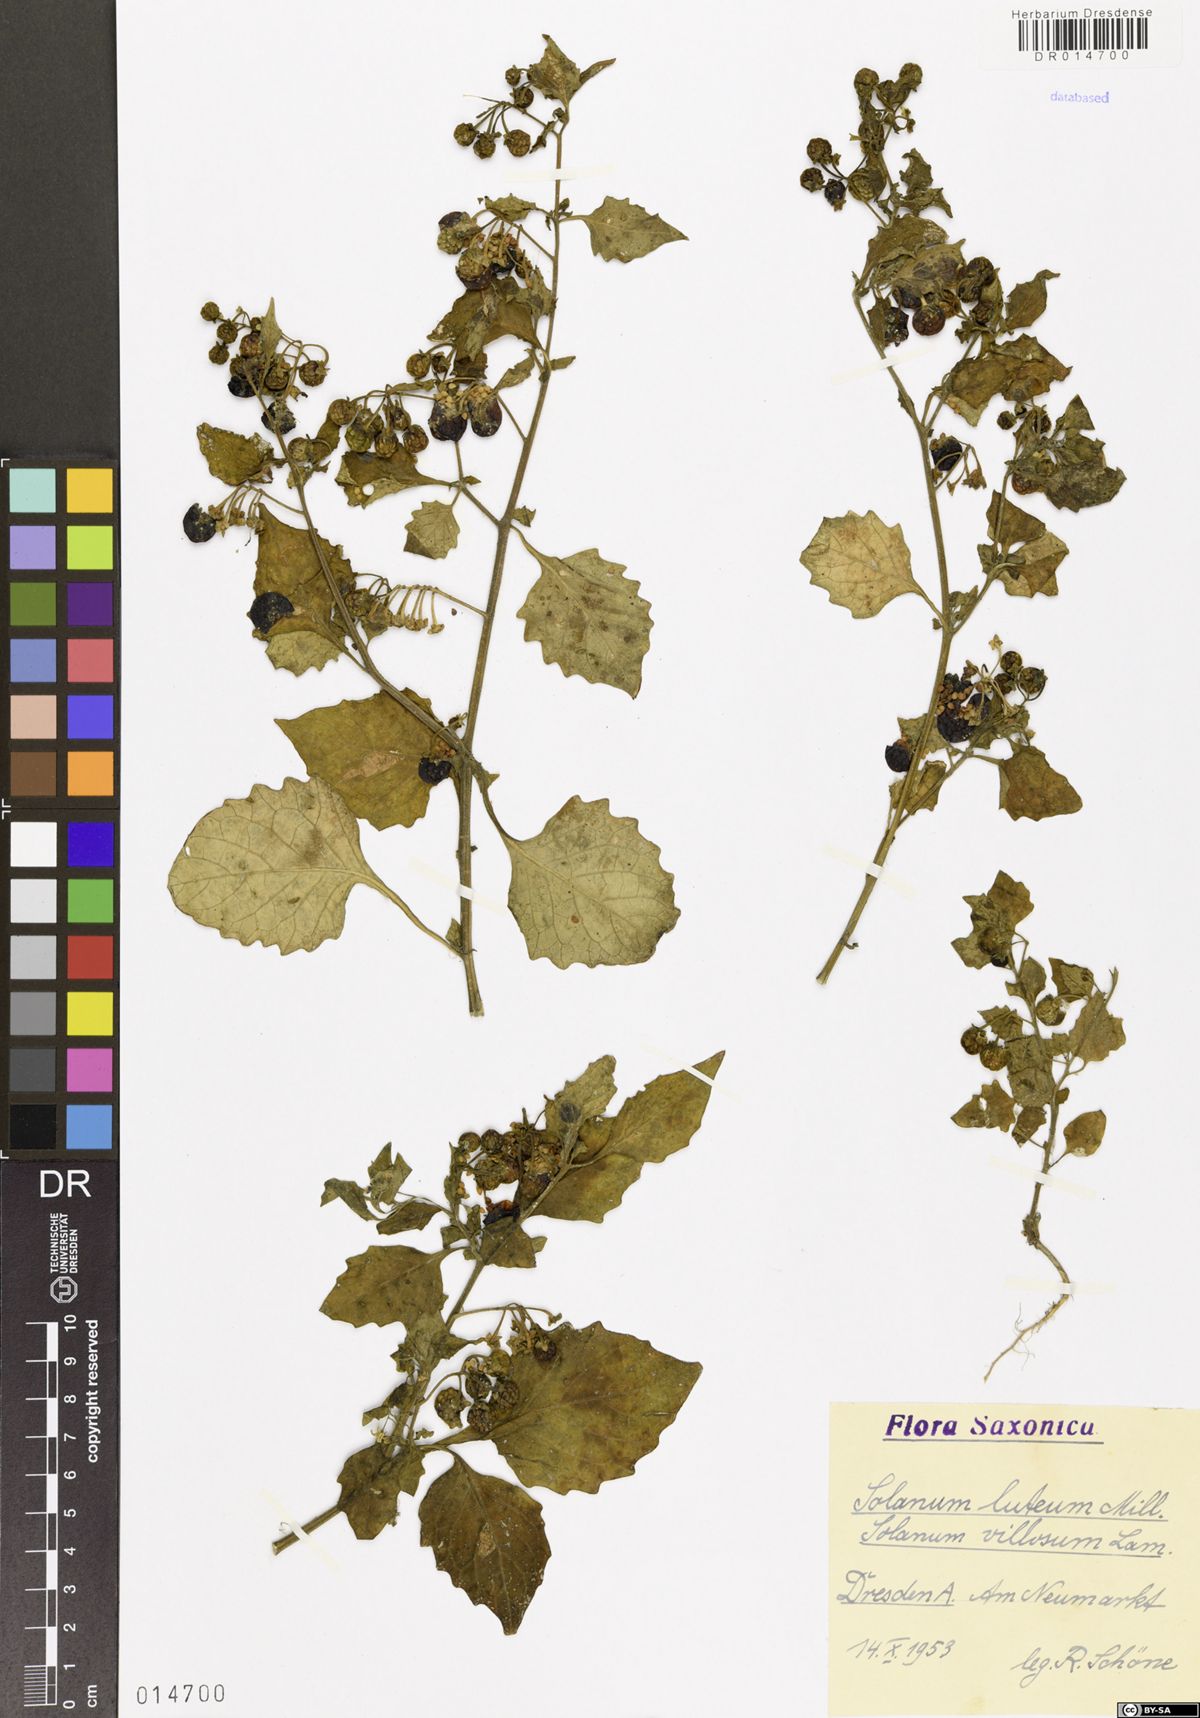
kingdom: Plantae
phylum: Tracheophyta
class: Magnoliopsida
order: Solanales
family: Solanaceae
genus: Solanum
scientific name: Solanum villosum
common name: Red nightshade
